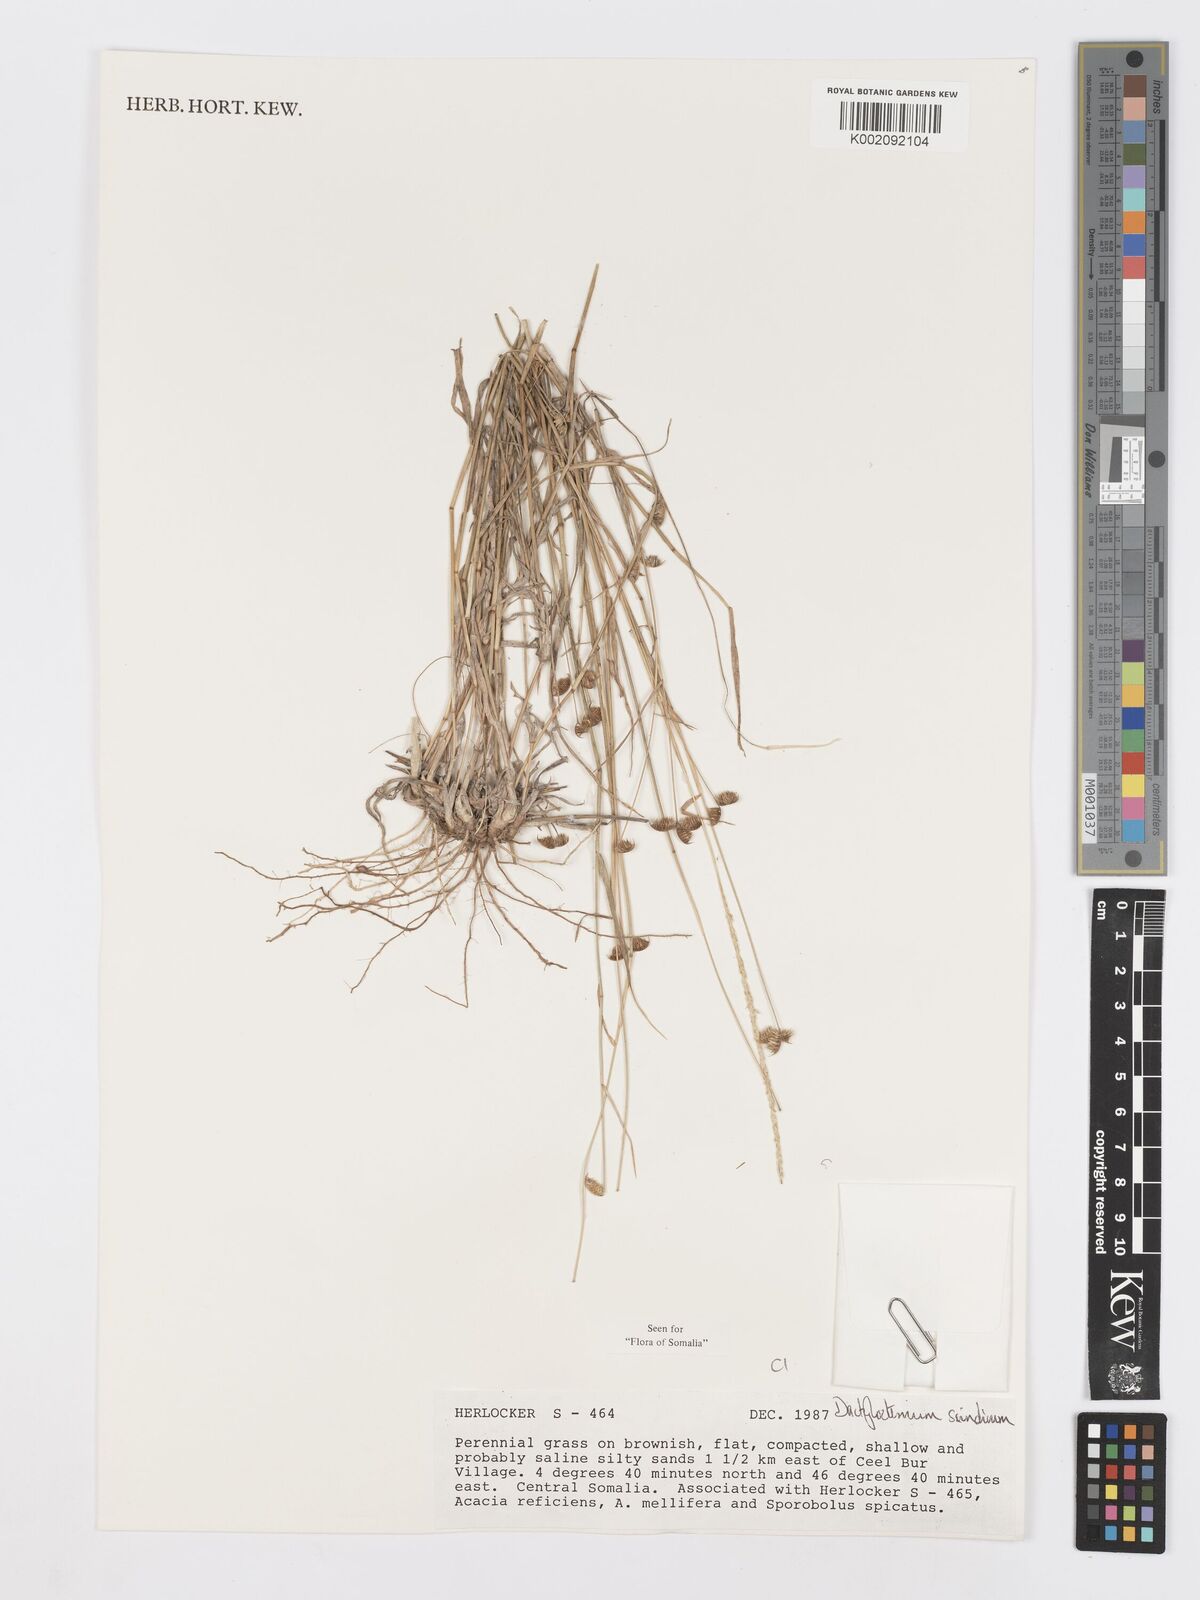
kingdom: Plantae
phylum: Tracheophyta
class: Liliopsida
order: Poales
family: Poaceae
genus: Dactyloctenium
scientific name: Dactyloctenium scindicum
